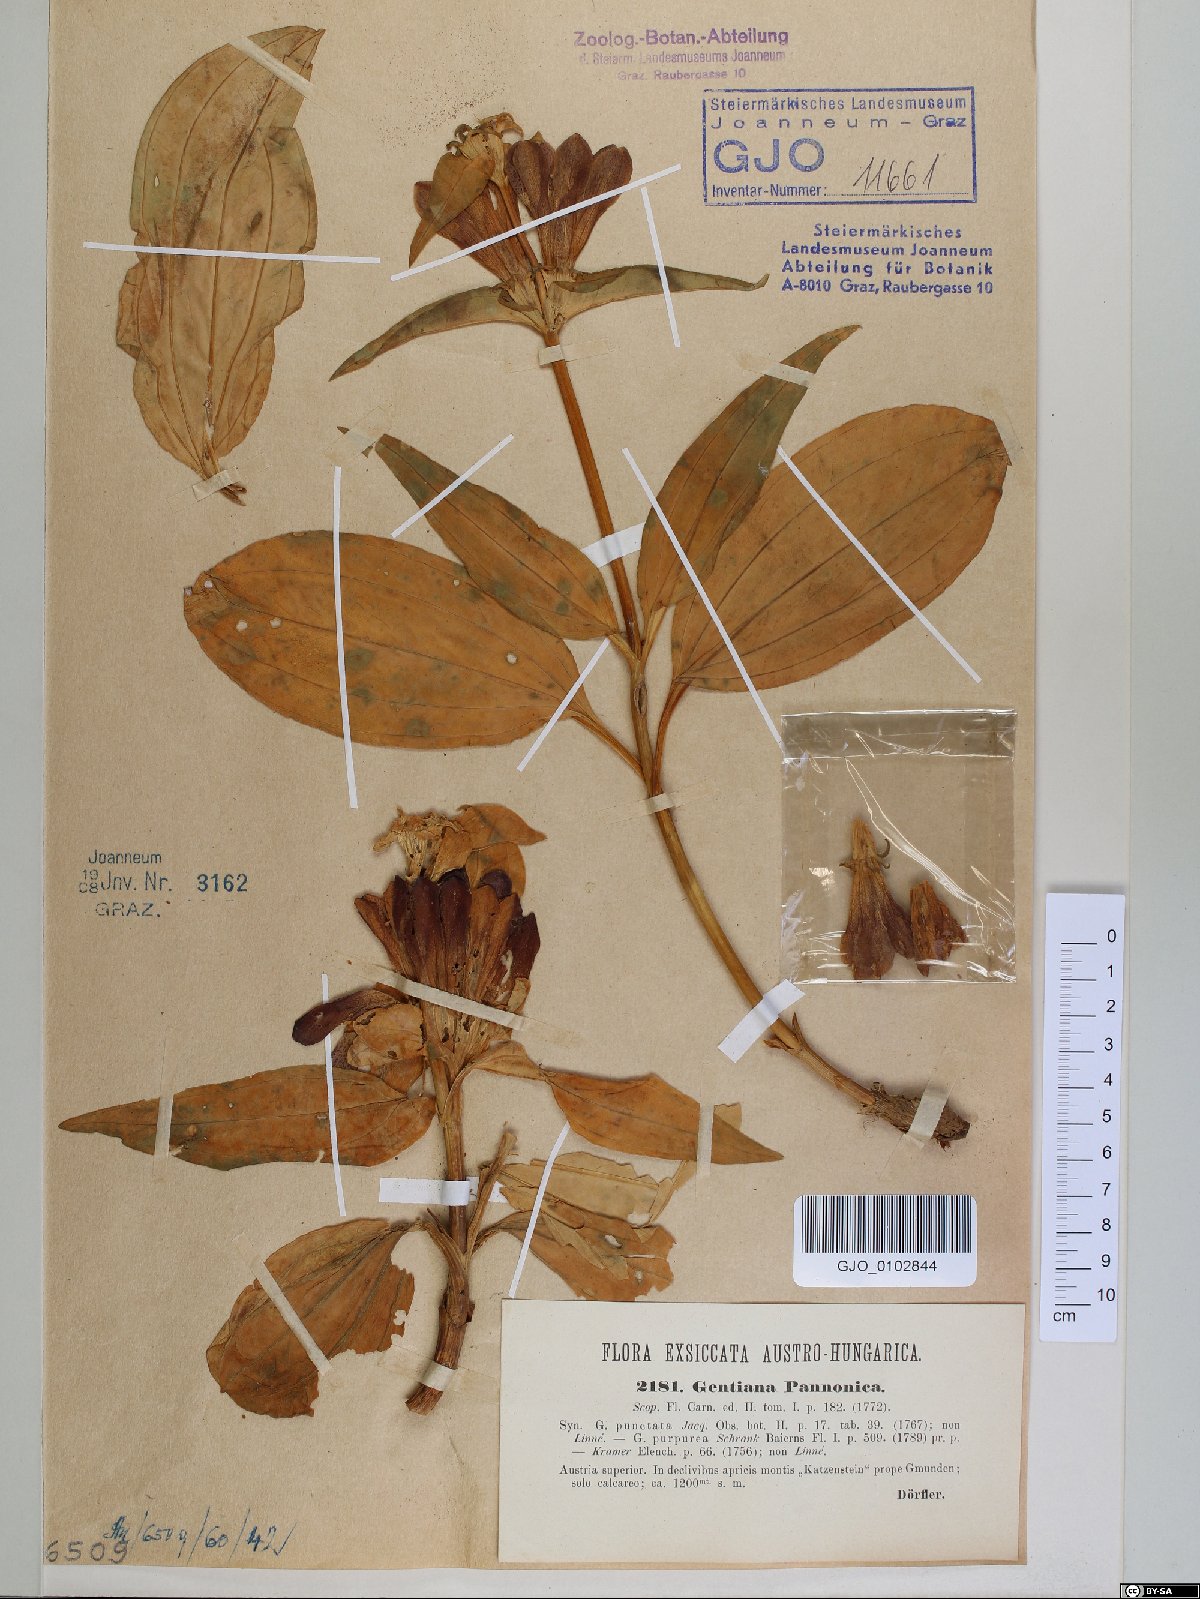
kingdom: Plantae
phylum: Tracheophyta
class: Magnoliopsida
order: Gentianales
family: Gentianaceae
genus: Gentiana
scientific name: Gentiana pannonica
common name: Hungarian gentian
